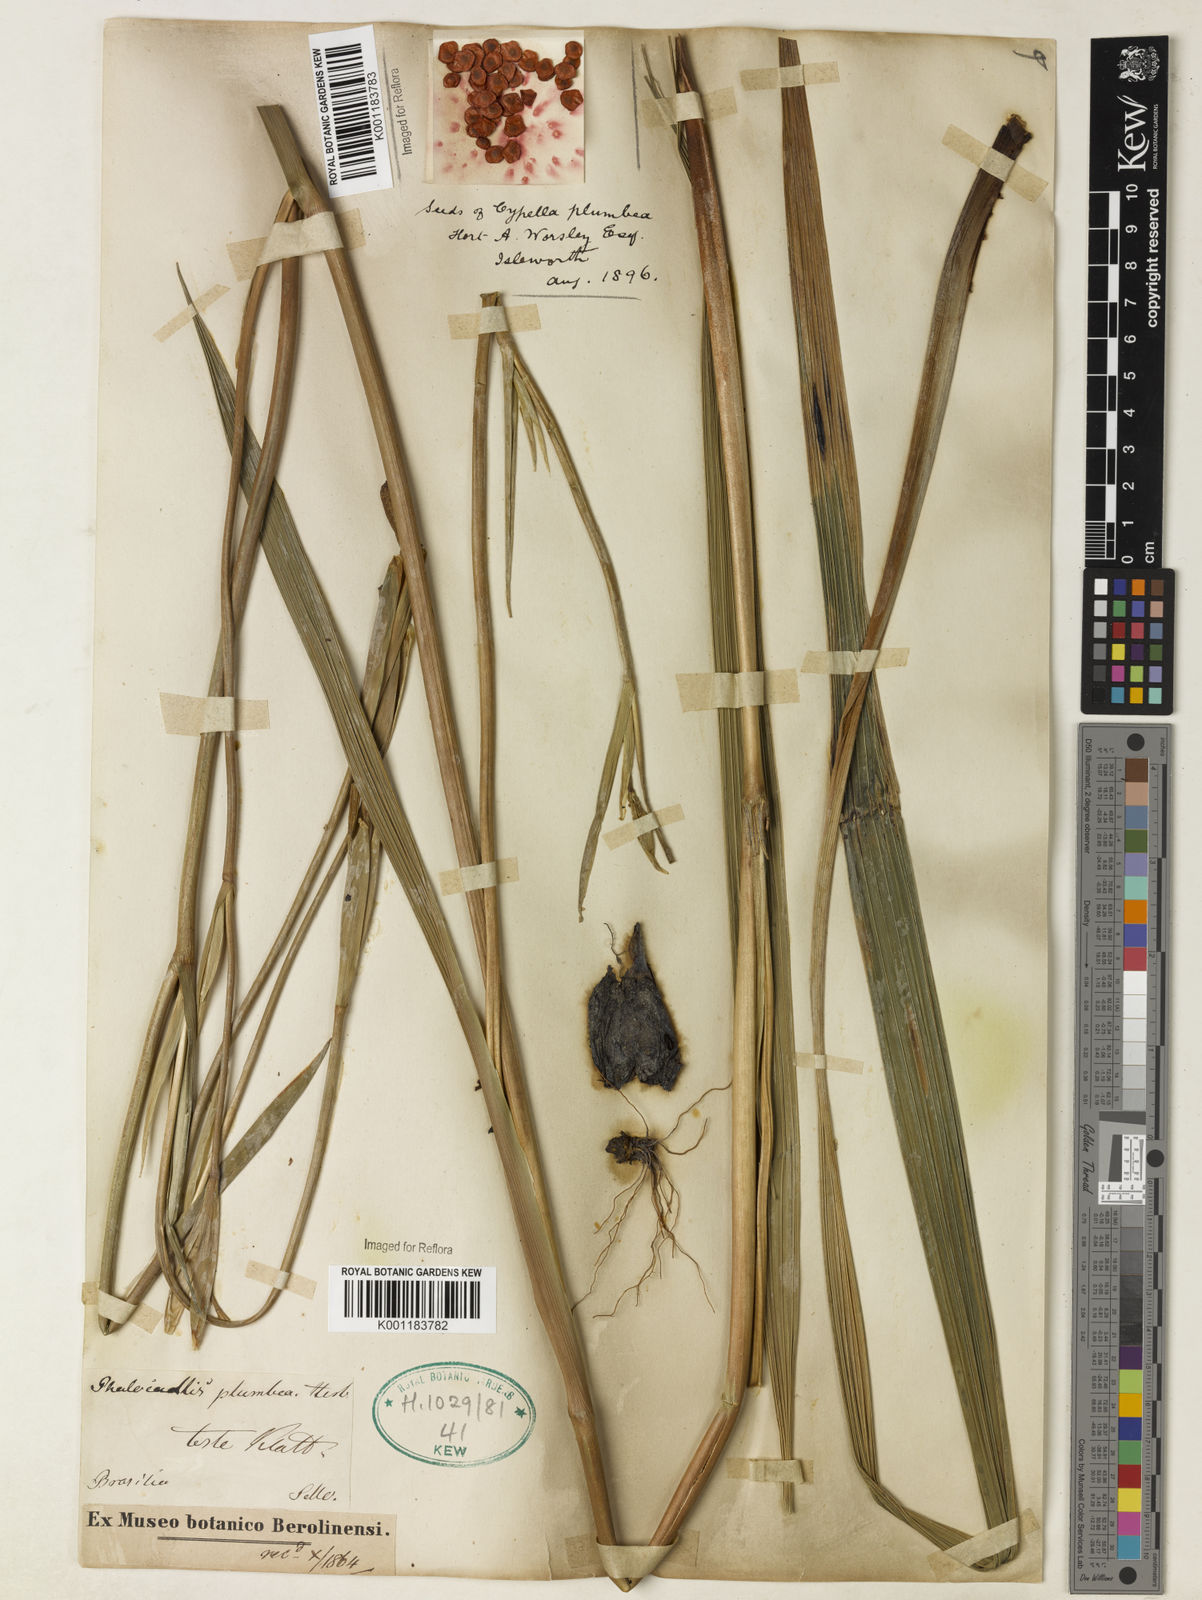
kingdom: Plantae
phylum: Tracheophyta
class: Liliopsida
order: Asparagales
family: Iridaceae
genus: Phalocallis
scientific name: Phalocallis coelestis
